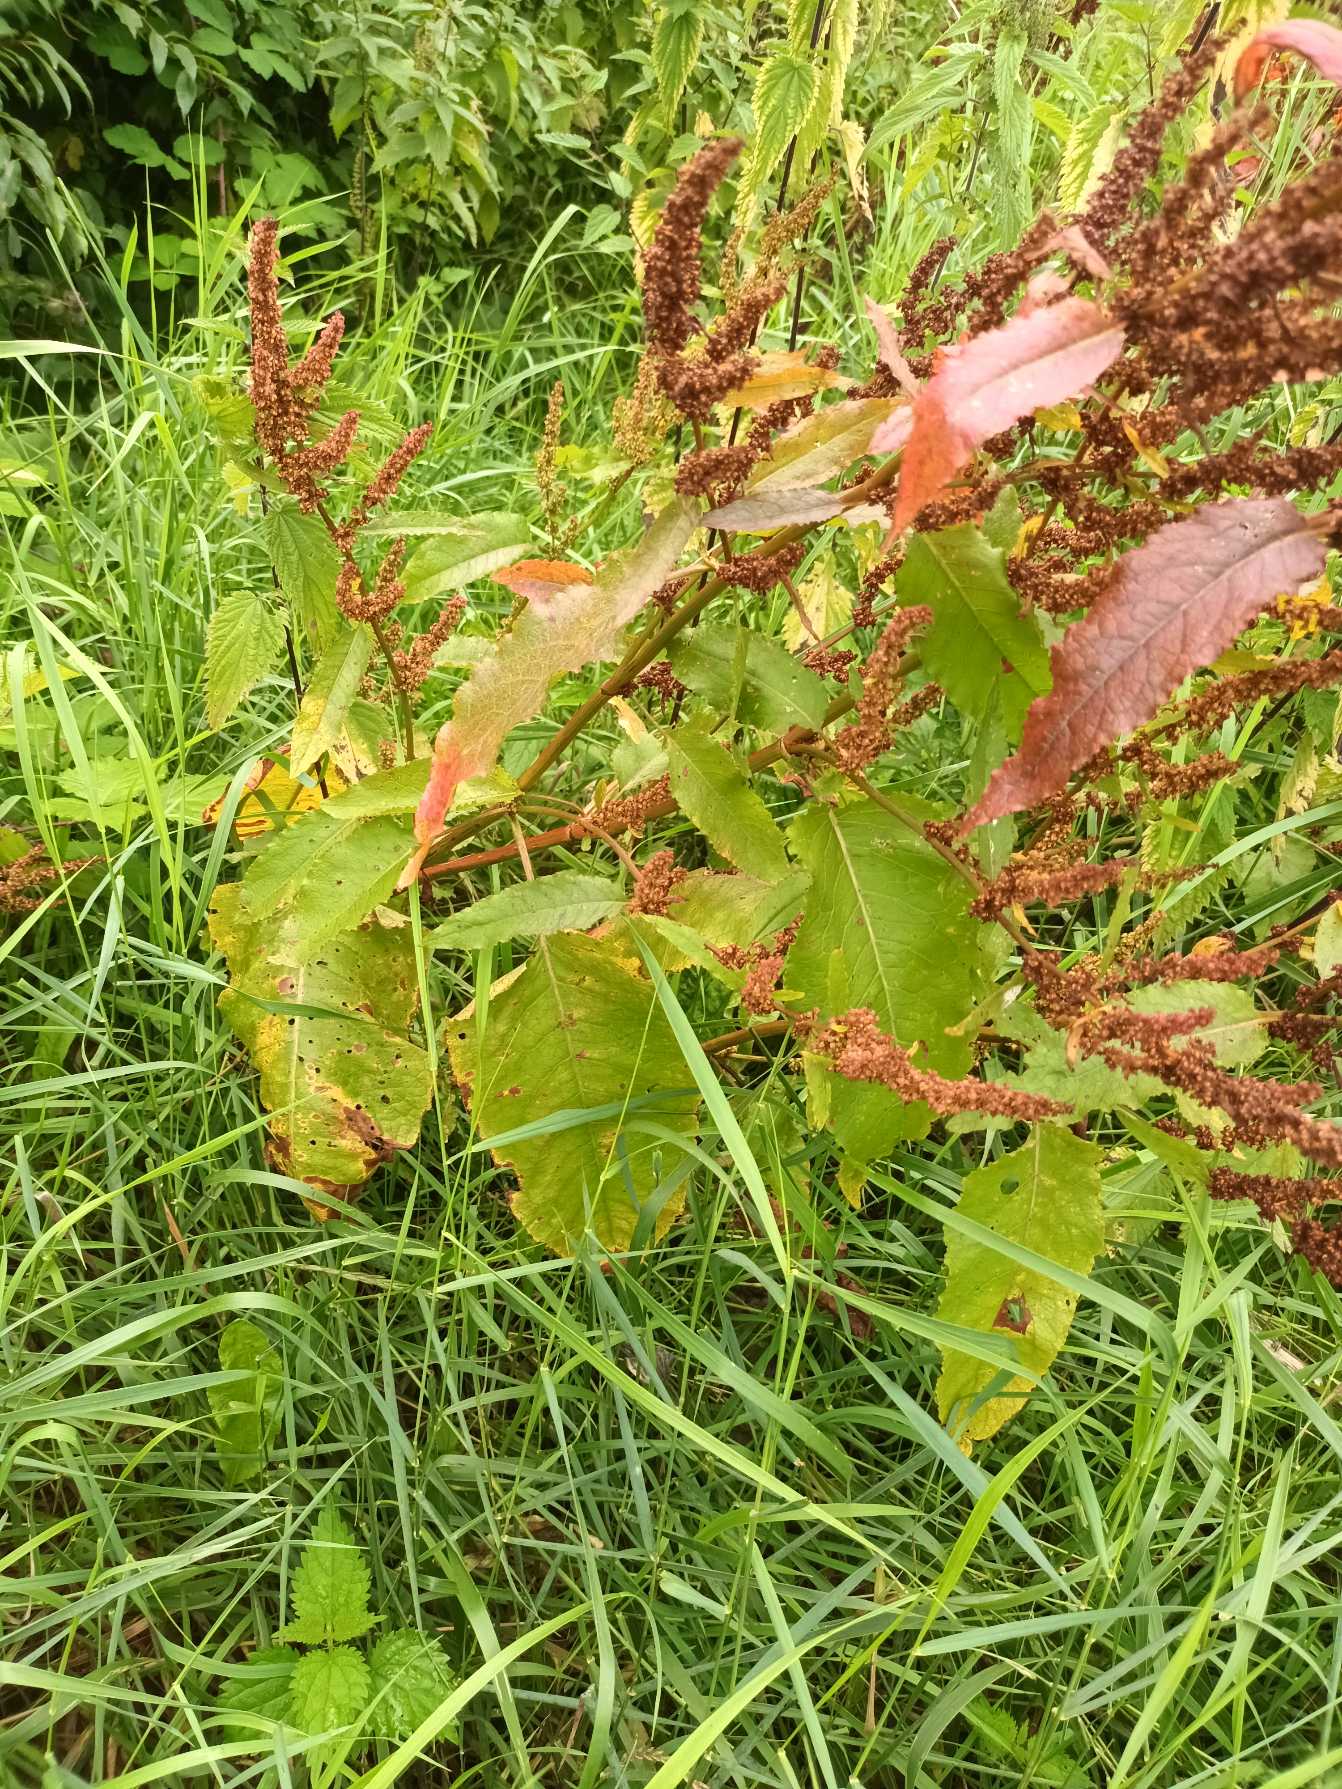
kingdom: Plantae
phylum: Tracheophyta
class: Magnoliopsida
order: Caryophyllales
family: Polygonaceae
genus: Rumex
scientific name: Rumex obtusifolius
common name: Butbladet skræppe
